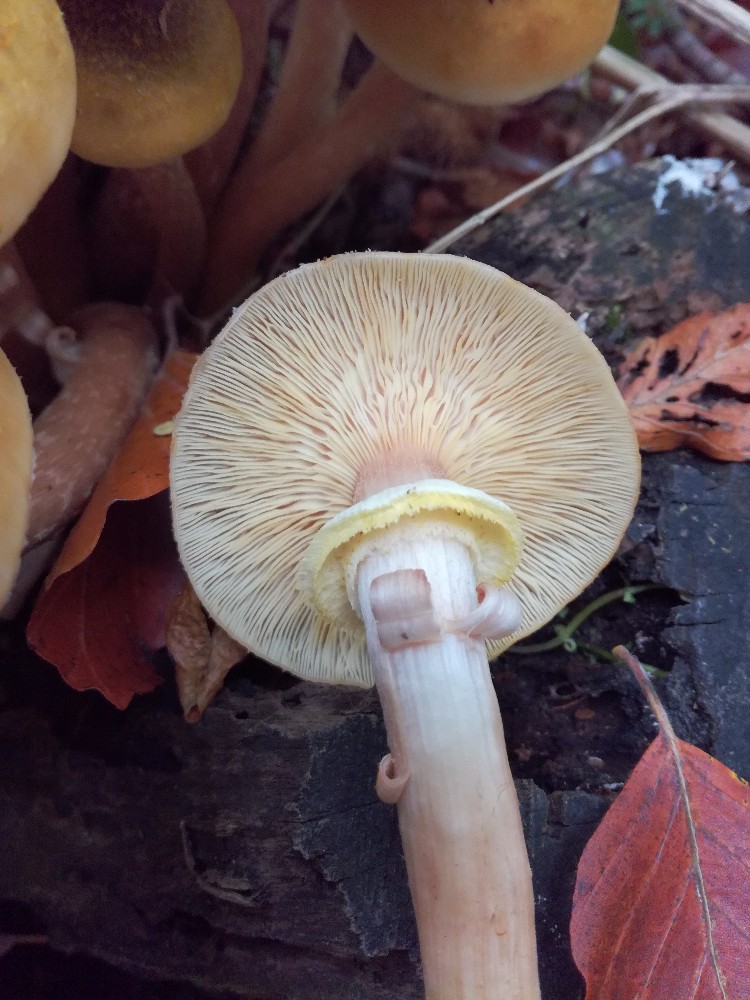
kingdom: Fungi
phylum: Basidiomycota
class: Agaricomycetes
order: Agaricales
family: Physalacriaceae
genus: Armillaria
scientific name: Armillaria mellea
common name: ægte honningsvamp
